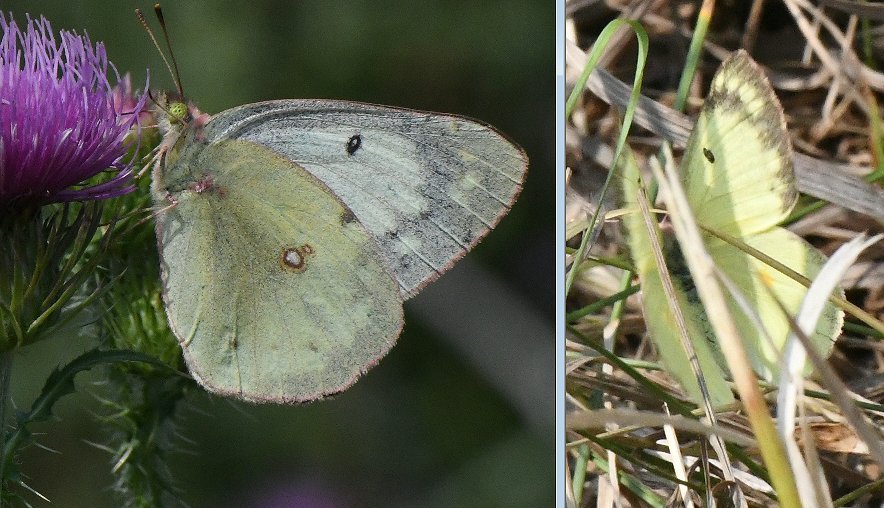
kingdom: Animalia
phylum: Arthropoda
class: Insecta
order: Lepidoptera
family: Pieridae
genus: Colias
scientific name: Colias philodice
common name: Clouded Sulphur
